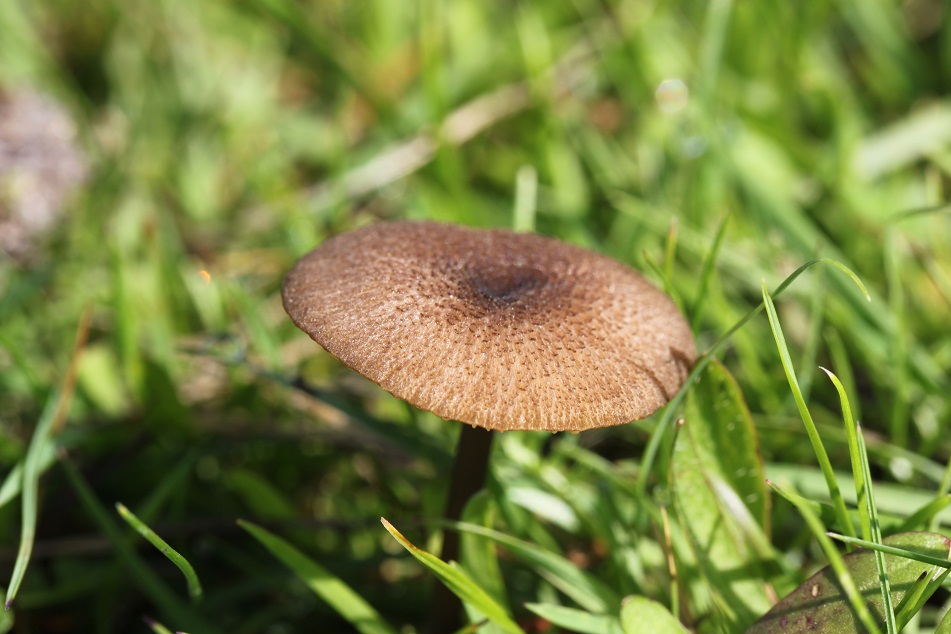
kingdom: Fungi
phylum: Basidiomycota
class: Agaricomycetes
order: Agaricales
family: Entolomataceae
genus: Entoloma
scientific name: Entoloma insidiosum
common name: ru rødblad
